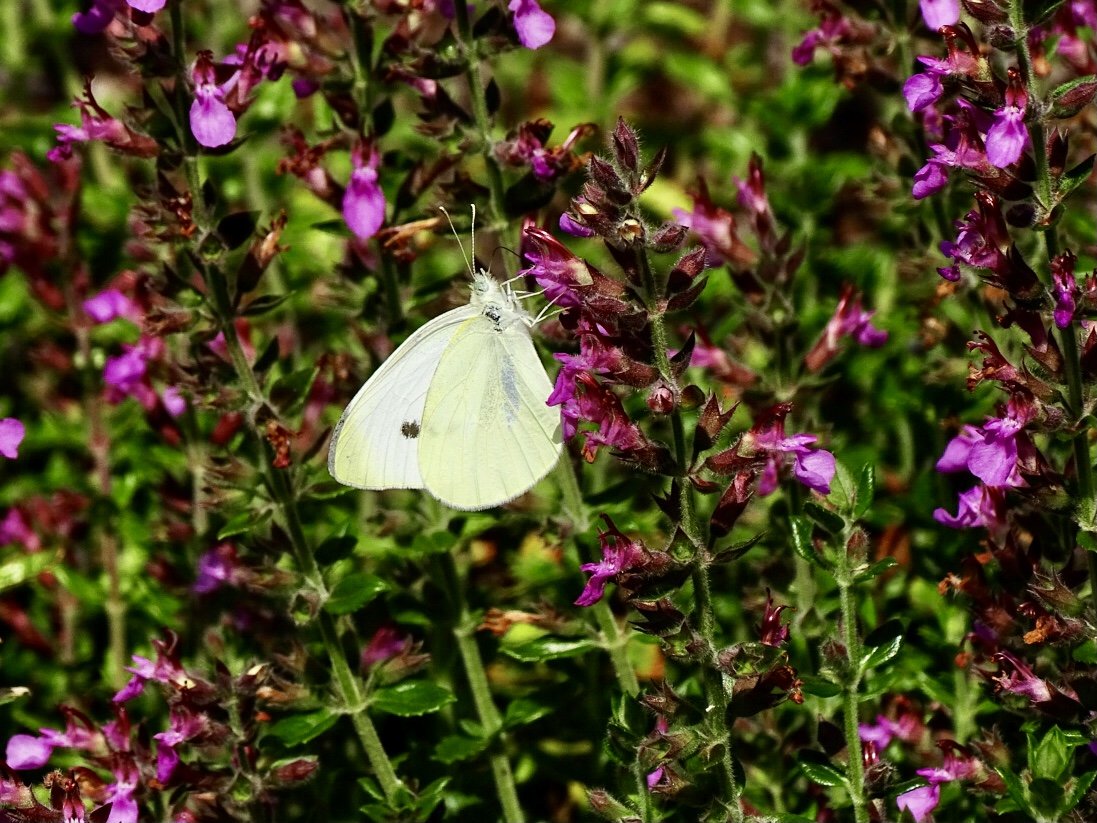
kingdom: Animalia
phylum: Arthropoda
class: Insecta
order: Lepidoptera
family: Pieridae
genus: Pieris
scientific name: Pieris rapae
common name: Cabbage White
